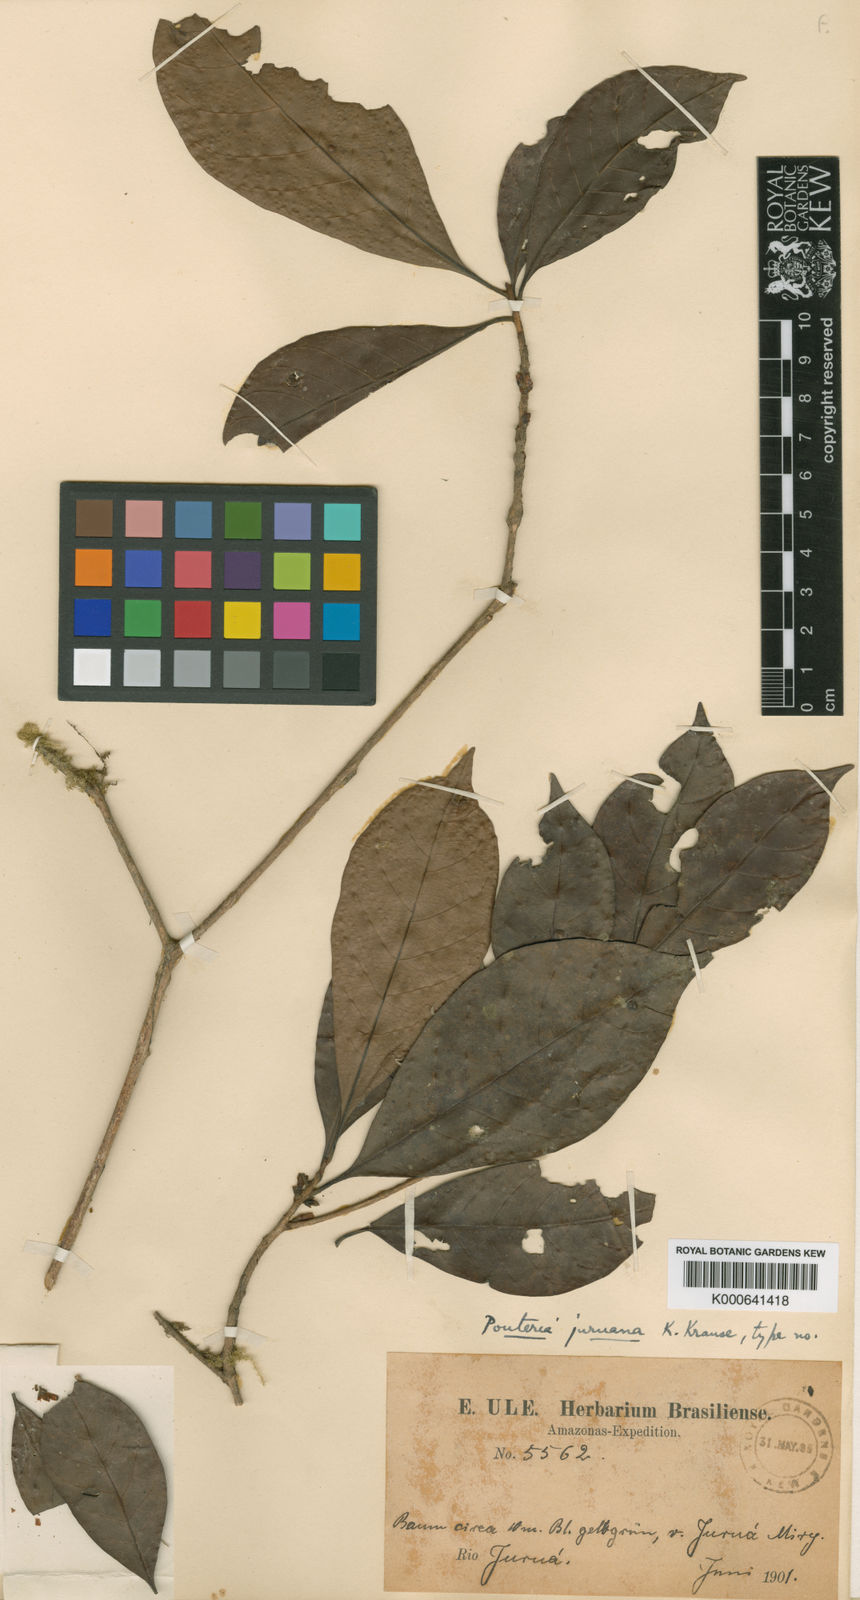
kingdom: Plantae
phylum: Tracheophyta
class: Magnoliopsida
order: Ericales
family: Sapotaceae
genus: Pouteria
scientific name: Pouteria juruana
